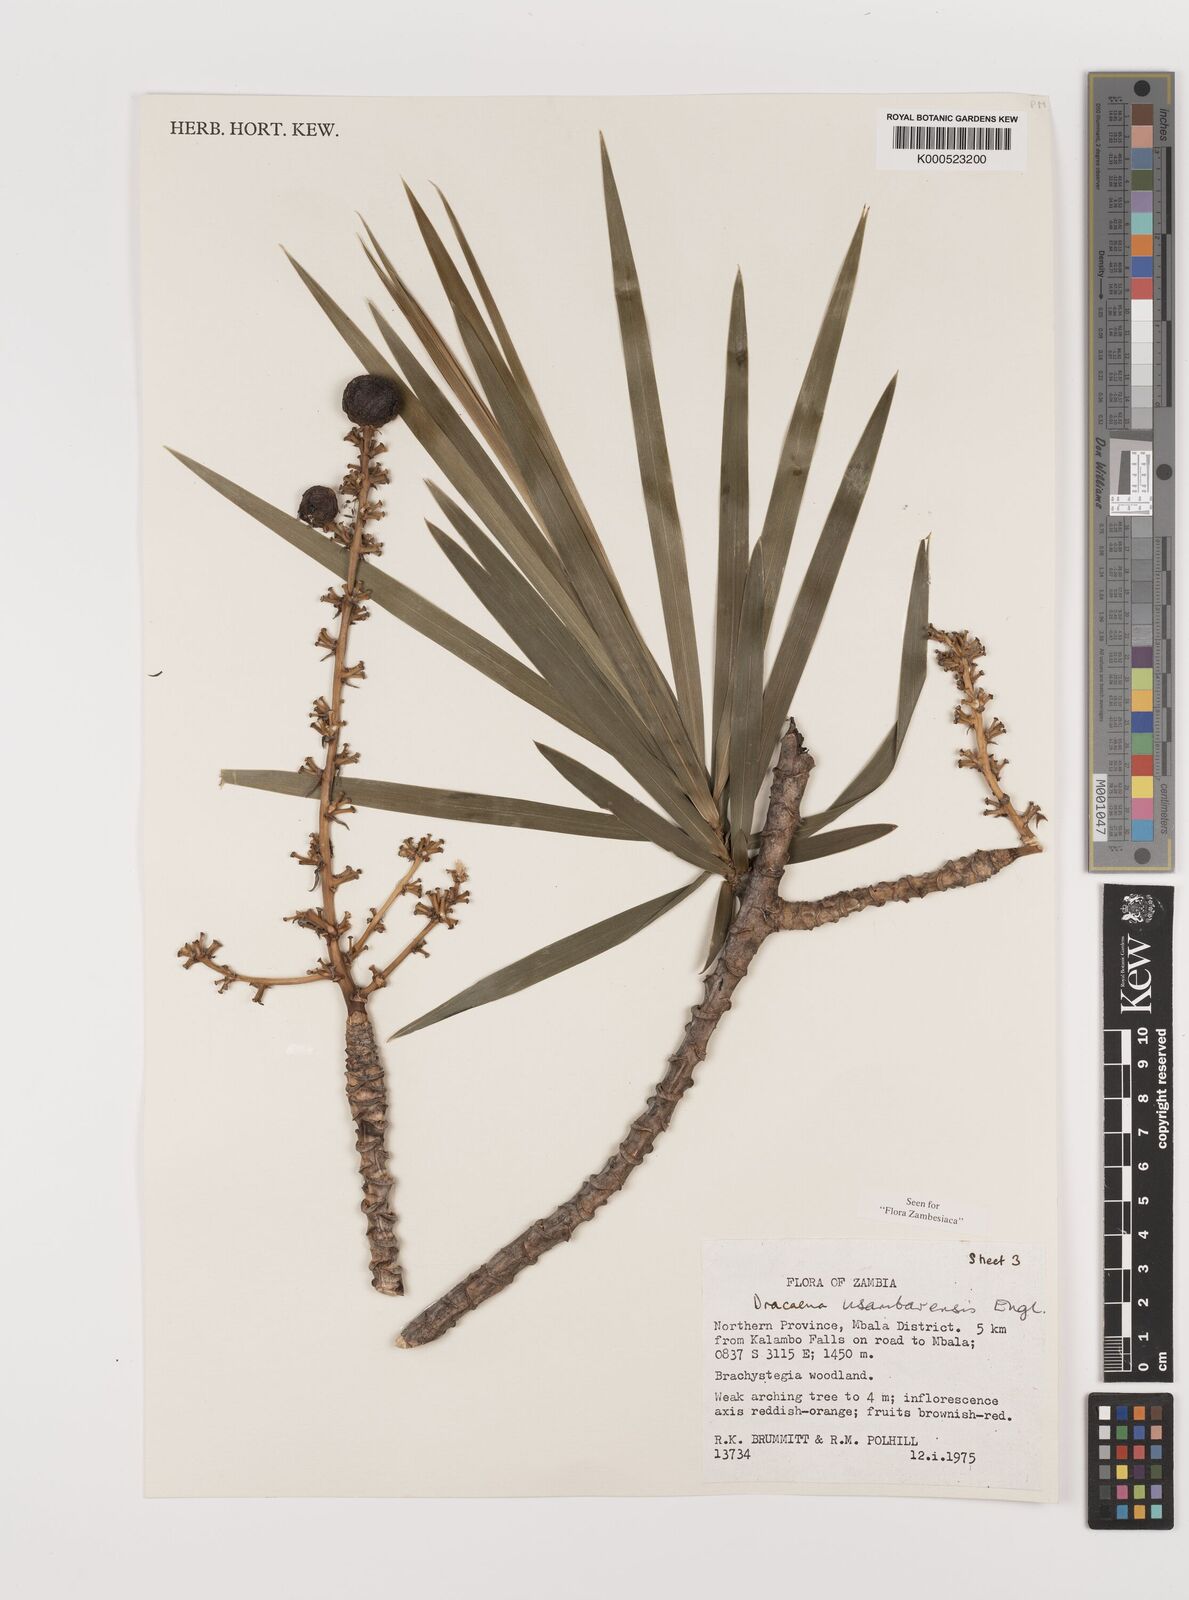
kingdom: Plantae
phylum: Tracheophyta
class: Liliopsida
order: Asparagales
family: Asparagaceae
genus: Dracaena
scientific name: Dracaena usambarensis
